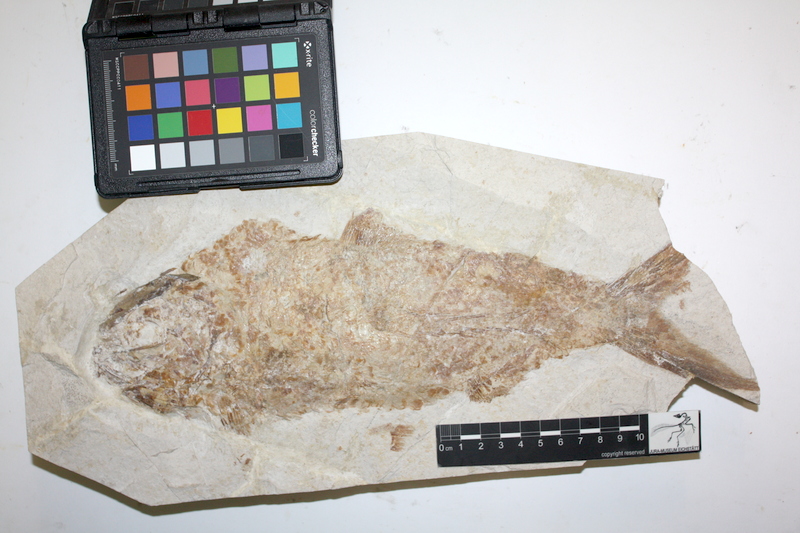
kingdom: Animalia
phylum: Chordata
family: Eurycormidae
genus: Eurycormus
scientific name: Eurycormus speciosus
